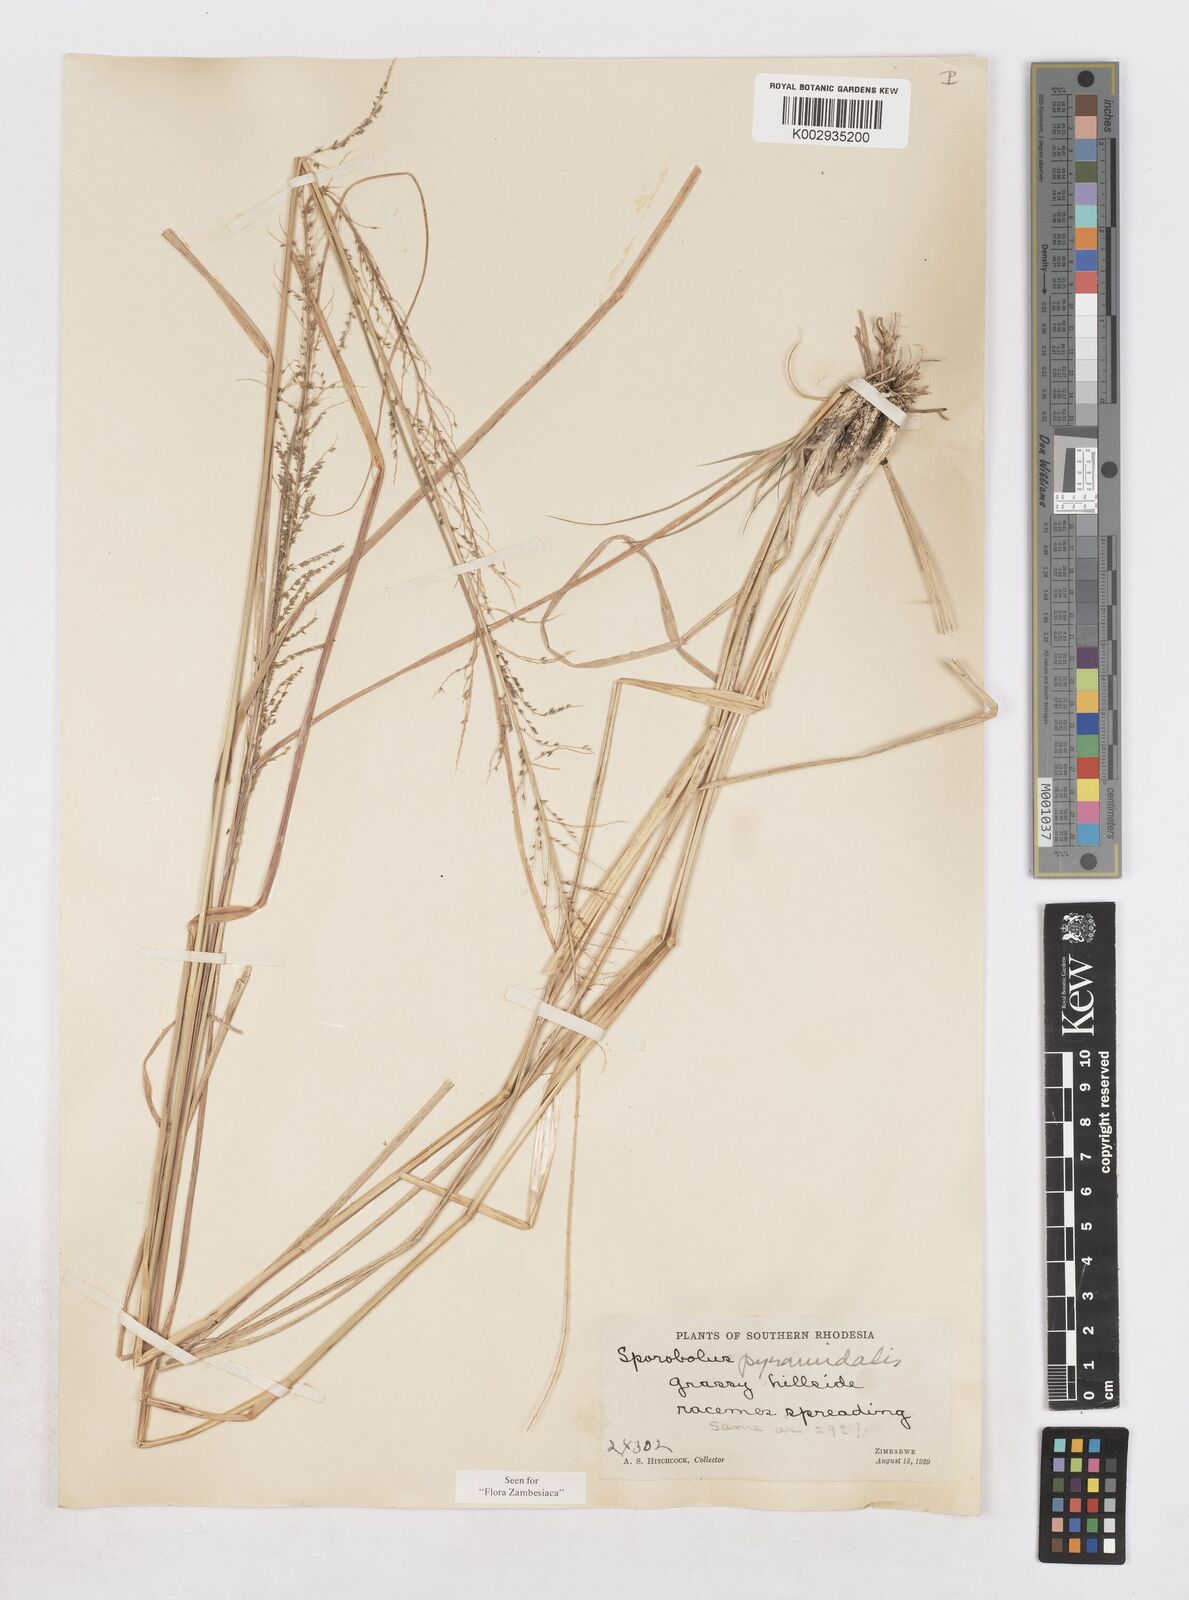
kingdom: Plantae
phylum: Tracheophyta
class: Liliopsida
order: Poales
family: Poaceae
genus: Sporobolus
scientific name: Sporobolus pyramidalis
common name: West indian dropseed
